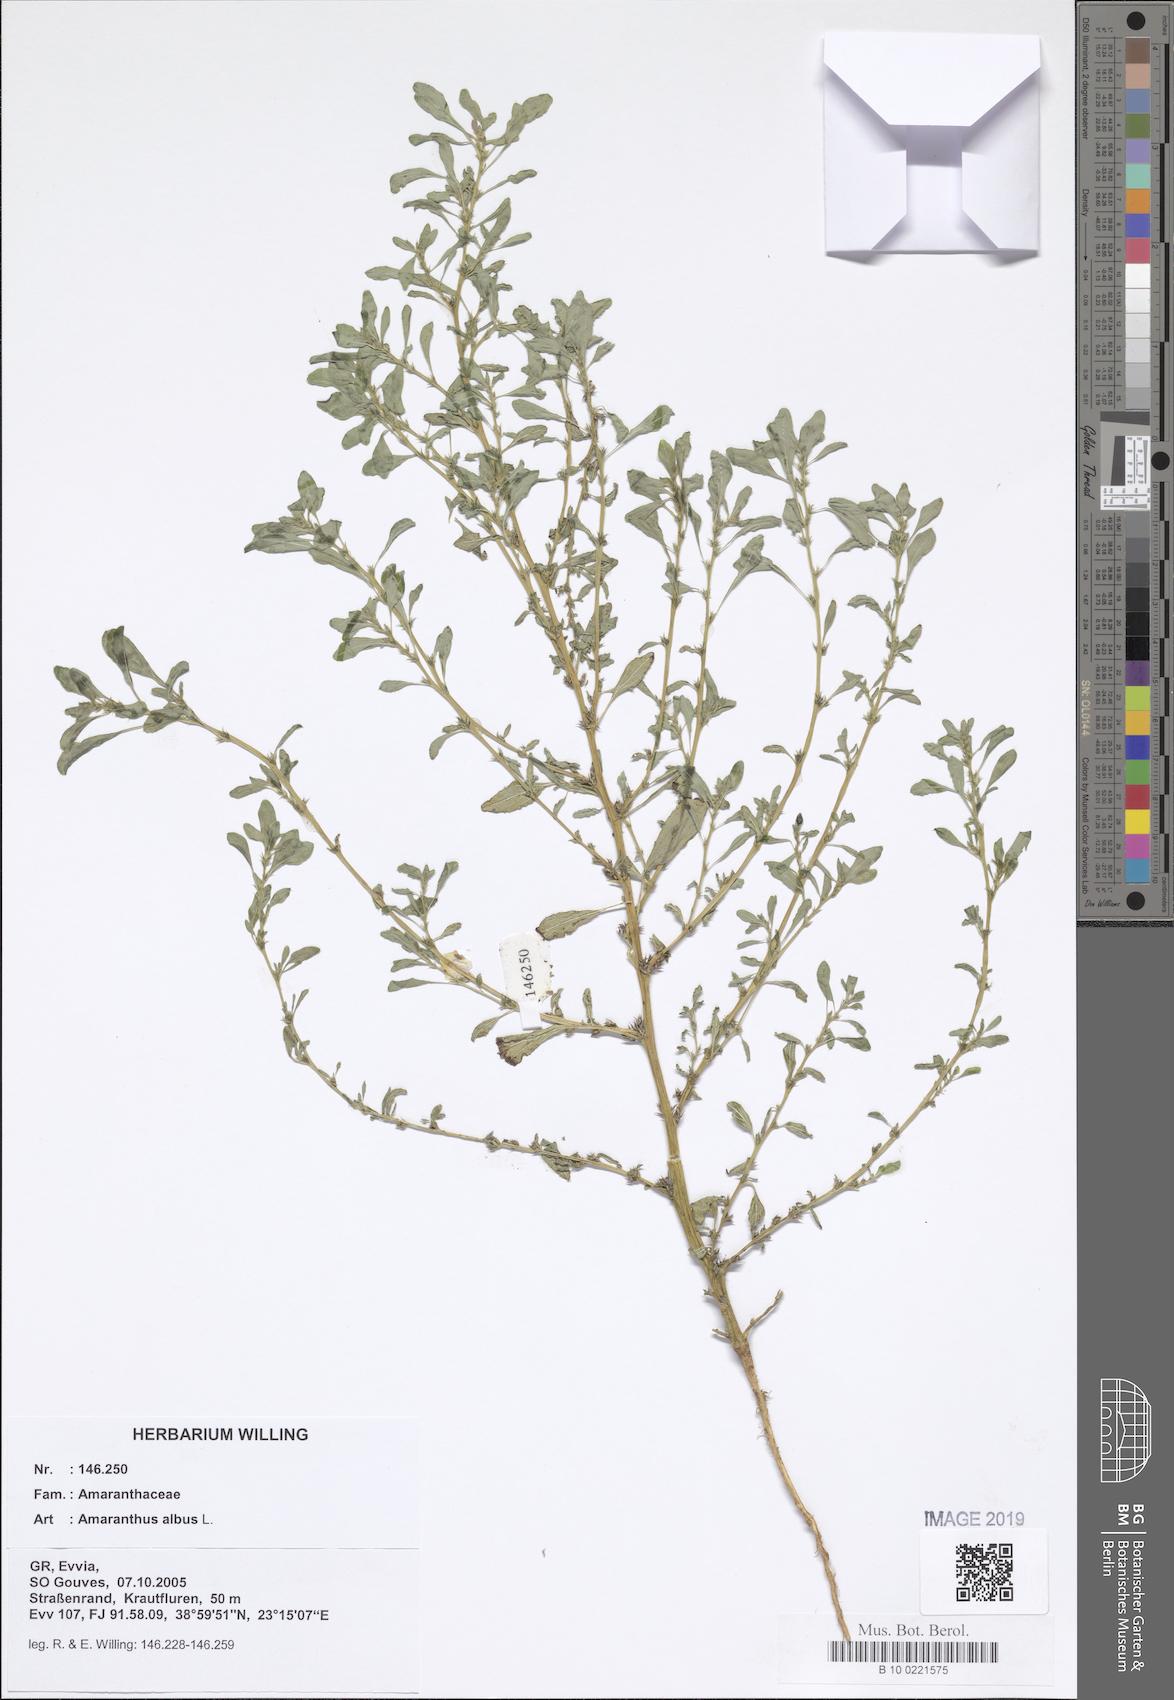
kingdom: Plantae
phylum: Tracheophyta
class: Magnoliopsida
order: Caryophyllales
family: Amaranthaceae
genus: Amaranthus
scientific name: Amaranthus albus
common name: White pigweed
